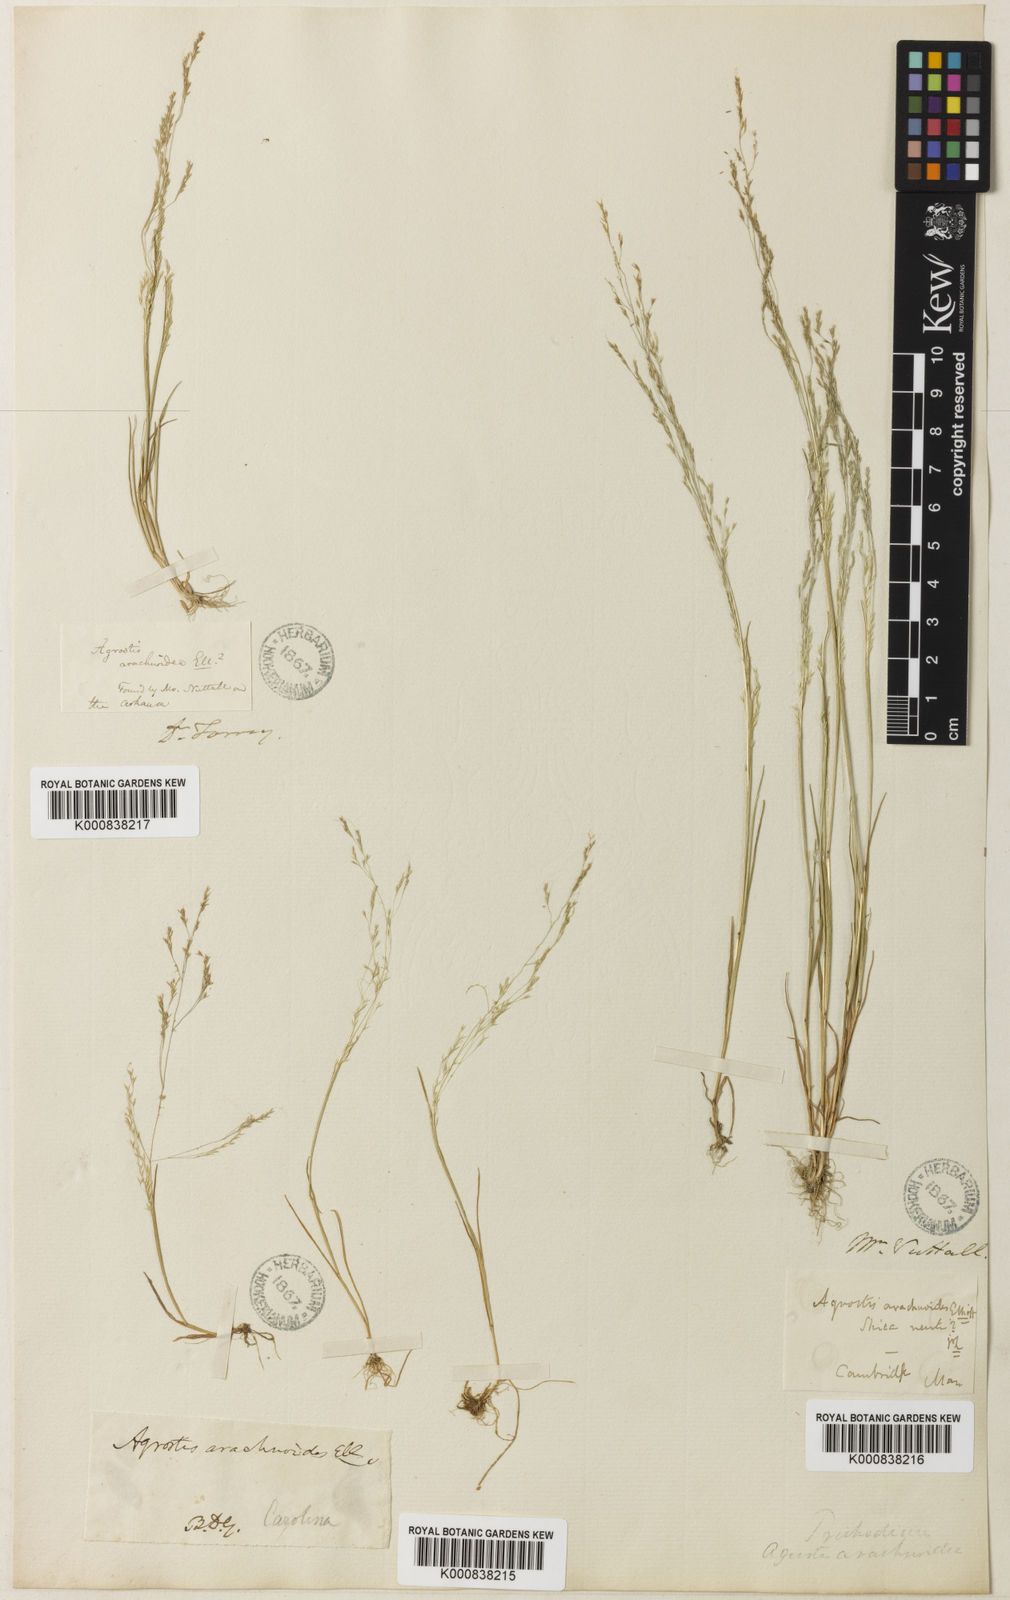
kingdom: Plantae
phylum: Tracheophyta
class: Liliopsida
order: Poales
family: Poaceae
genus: Agrostis
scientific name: Agrostis elliottiana
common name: Elliott's bent
